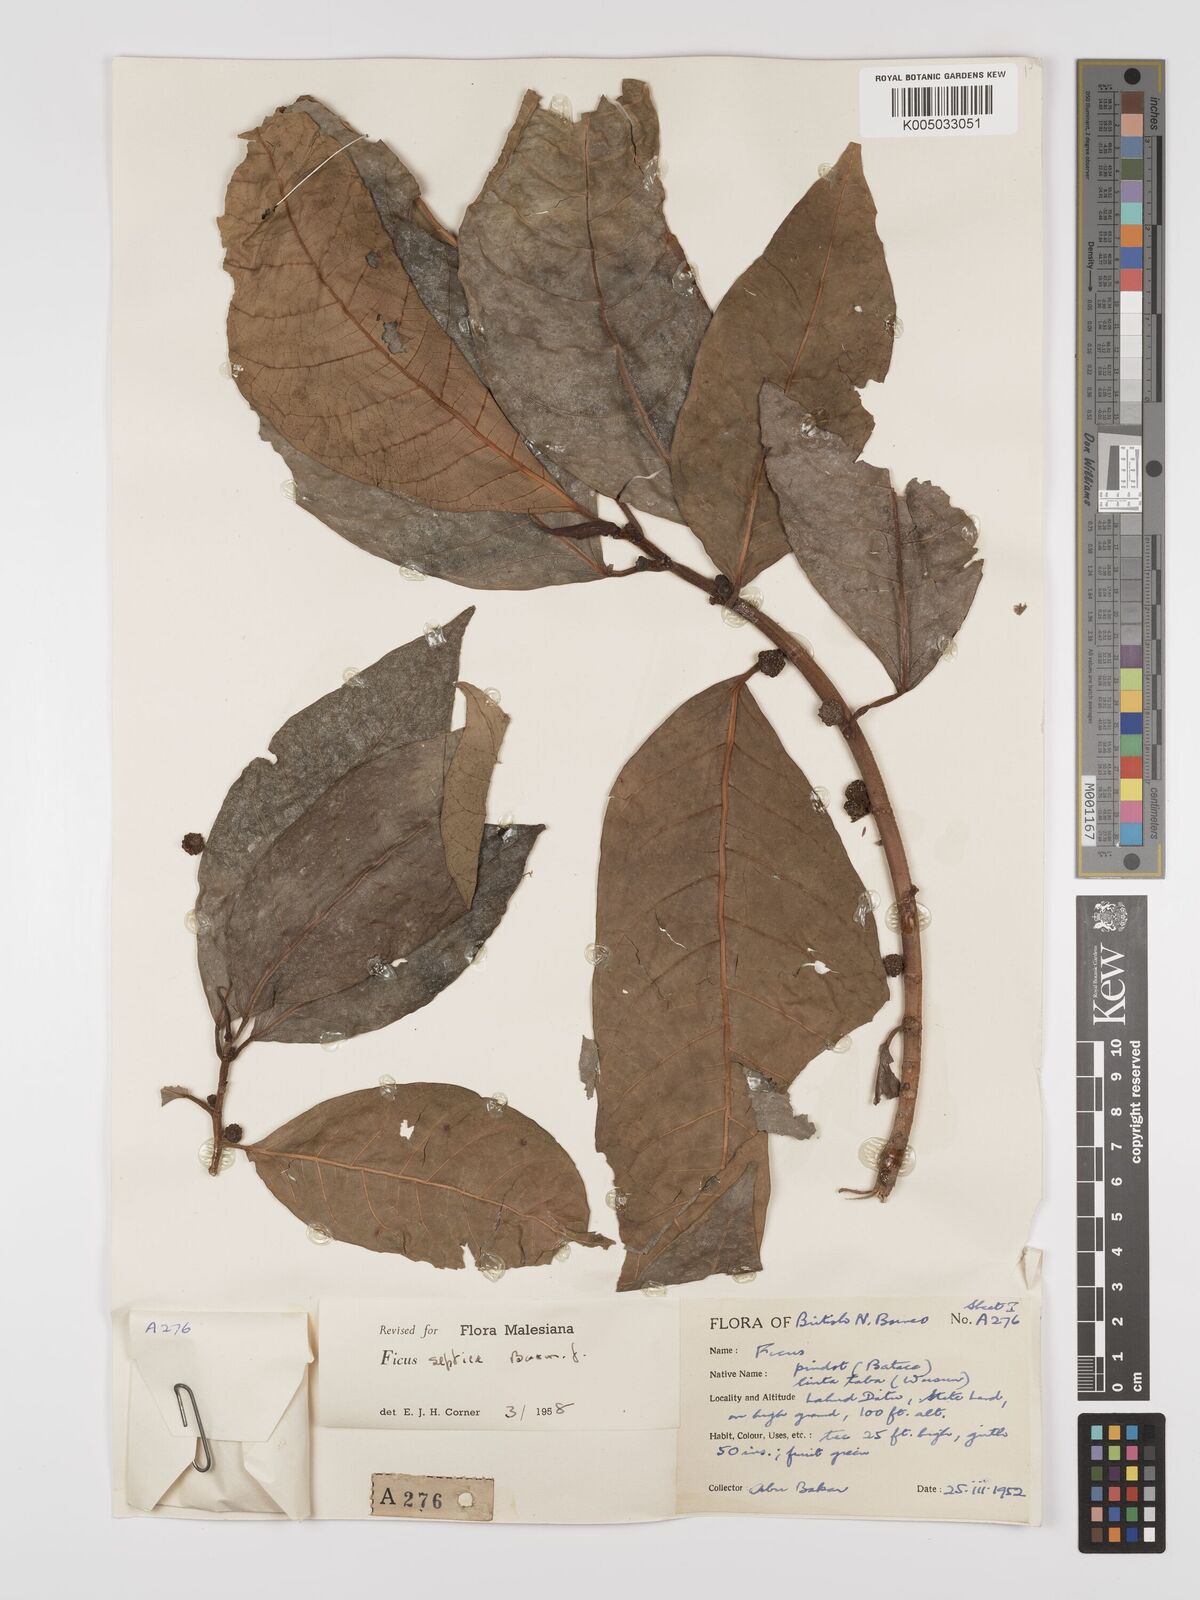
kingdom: Plantae
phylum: Tracheophyta
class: Magnoliopsida
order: Rosales
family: Moraceae
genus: Ficus
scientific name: Ficus septica
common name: Septic fig
